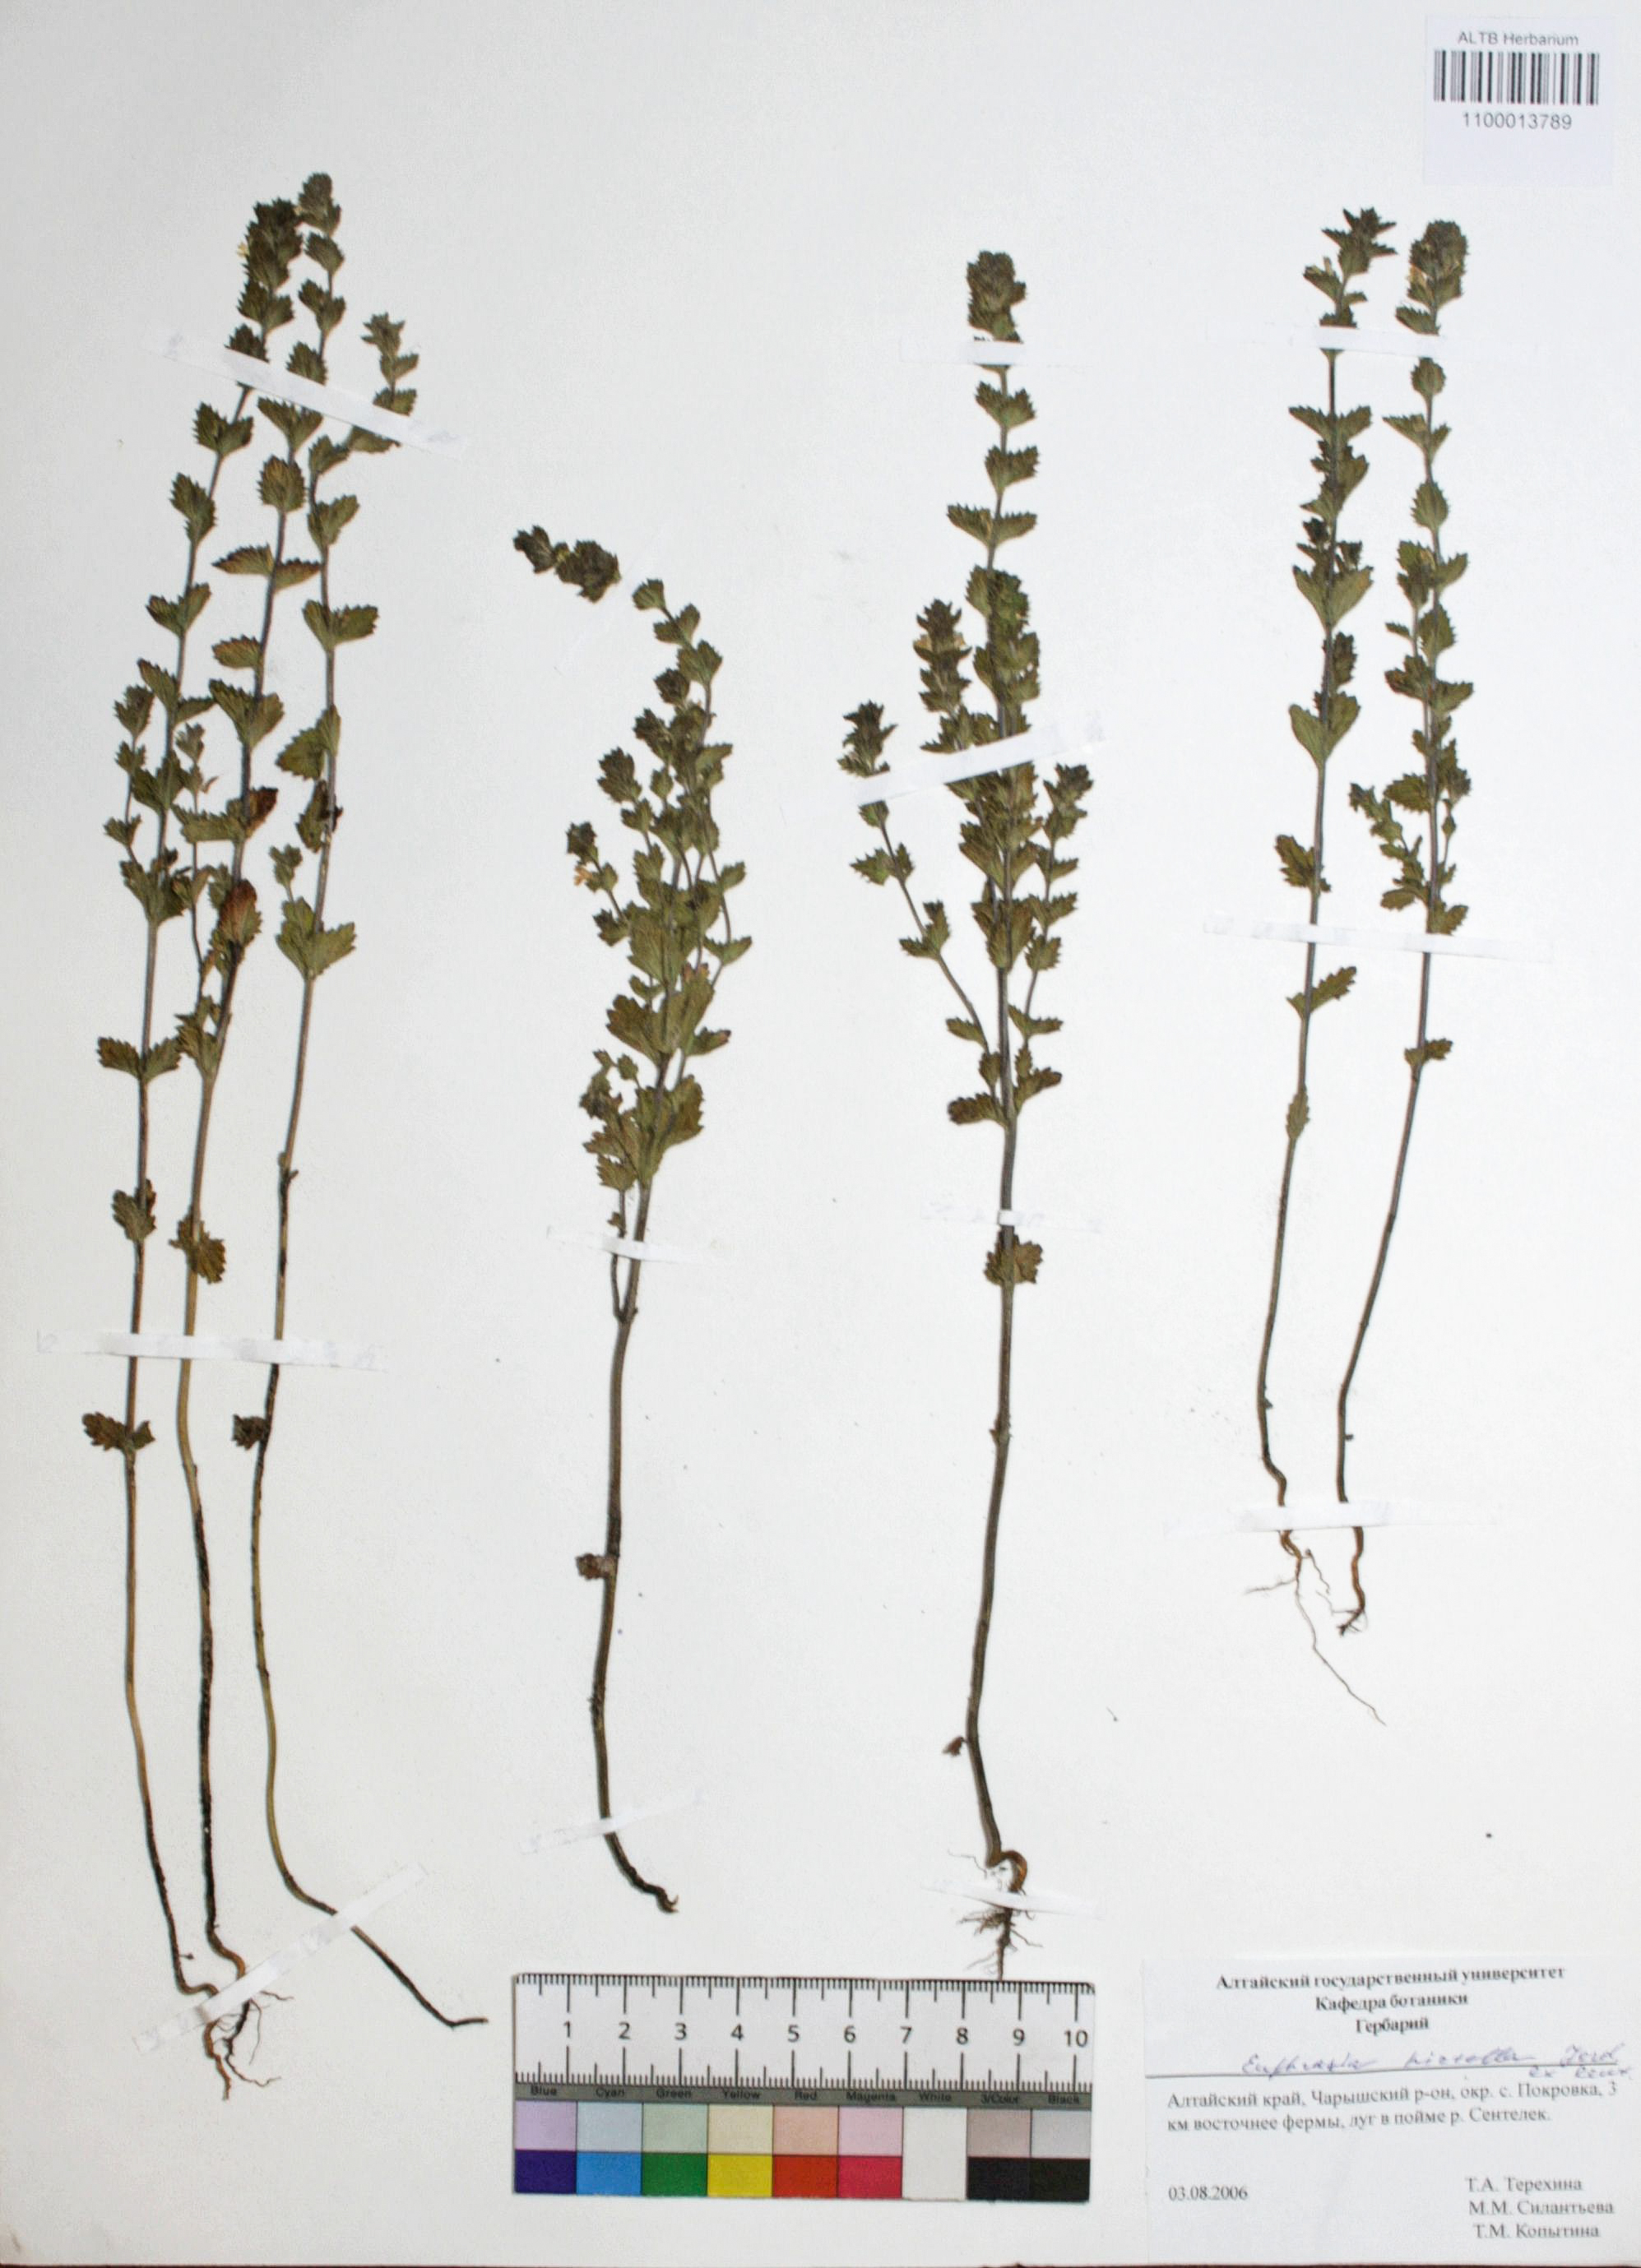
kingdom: Plantae
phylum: Tracheophyta
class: Magnoliopsida
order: Lamiales
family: Orobanchaceae
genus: Euphrasia
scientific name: Euphrasia hirtella
